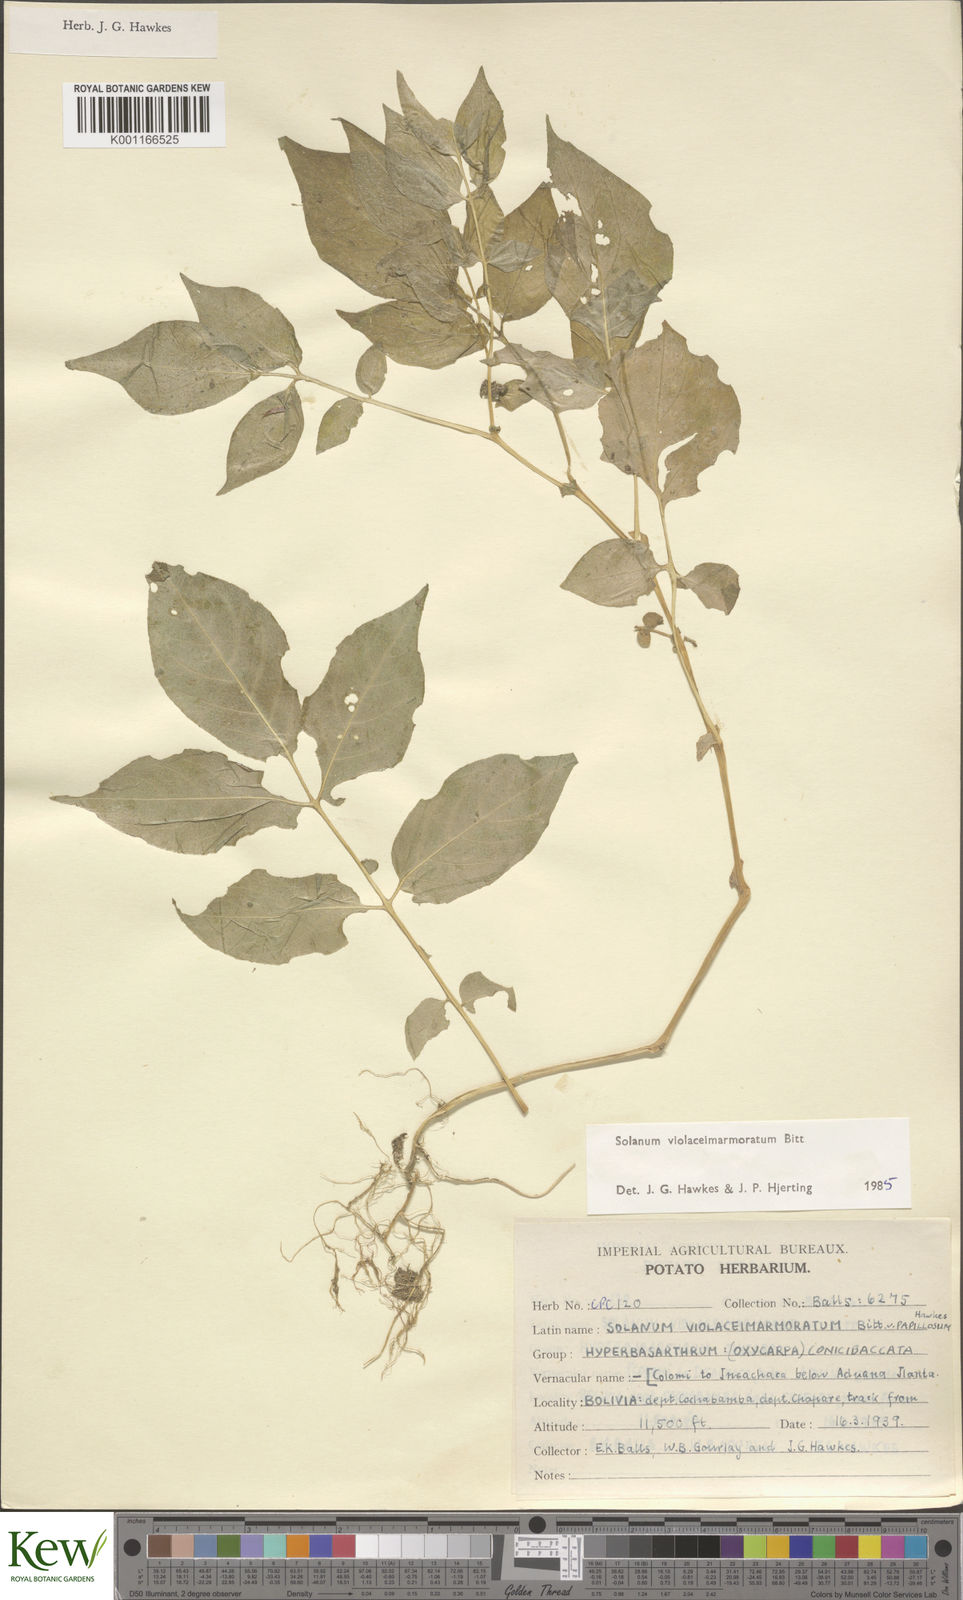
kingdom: Plantae
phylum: Tracheophyta
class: Magnoliopsida
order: Solanales
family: Solanaceae
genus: Solanum
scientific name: Solanum violaceimarmoratum
